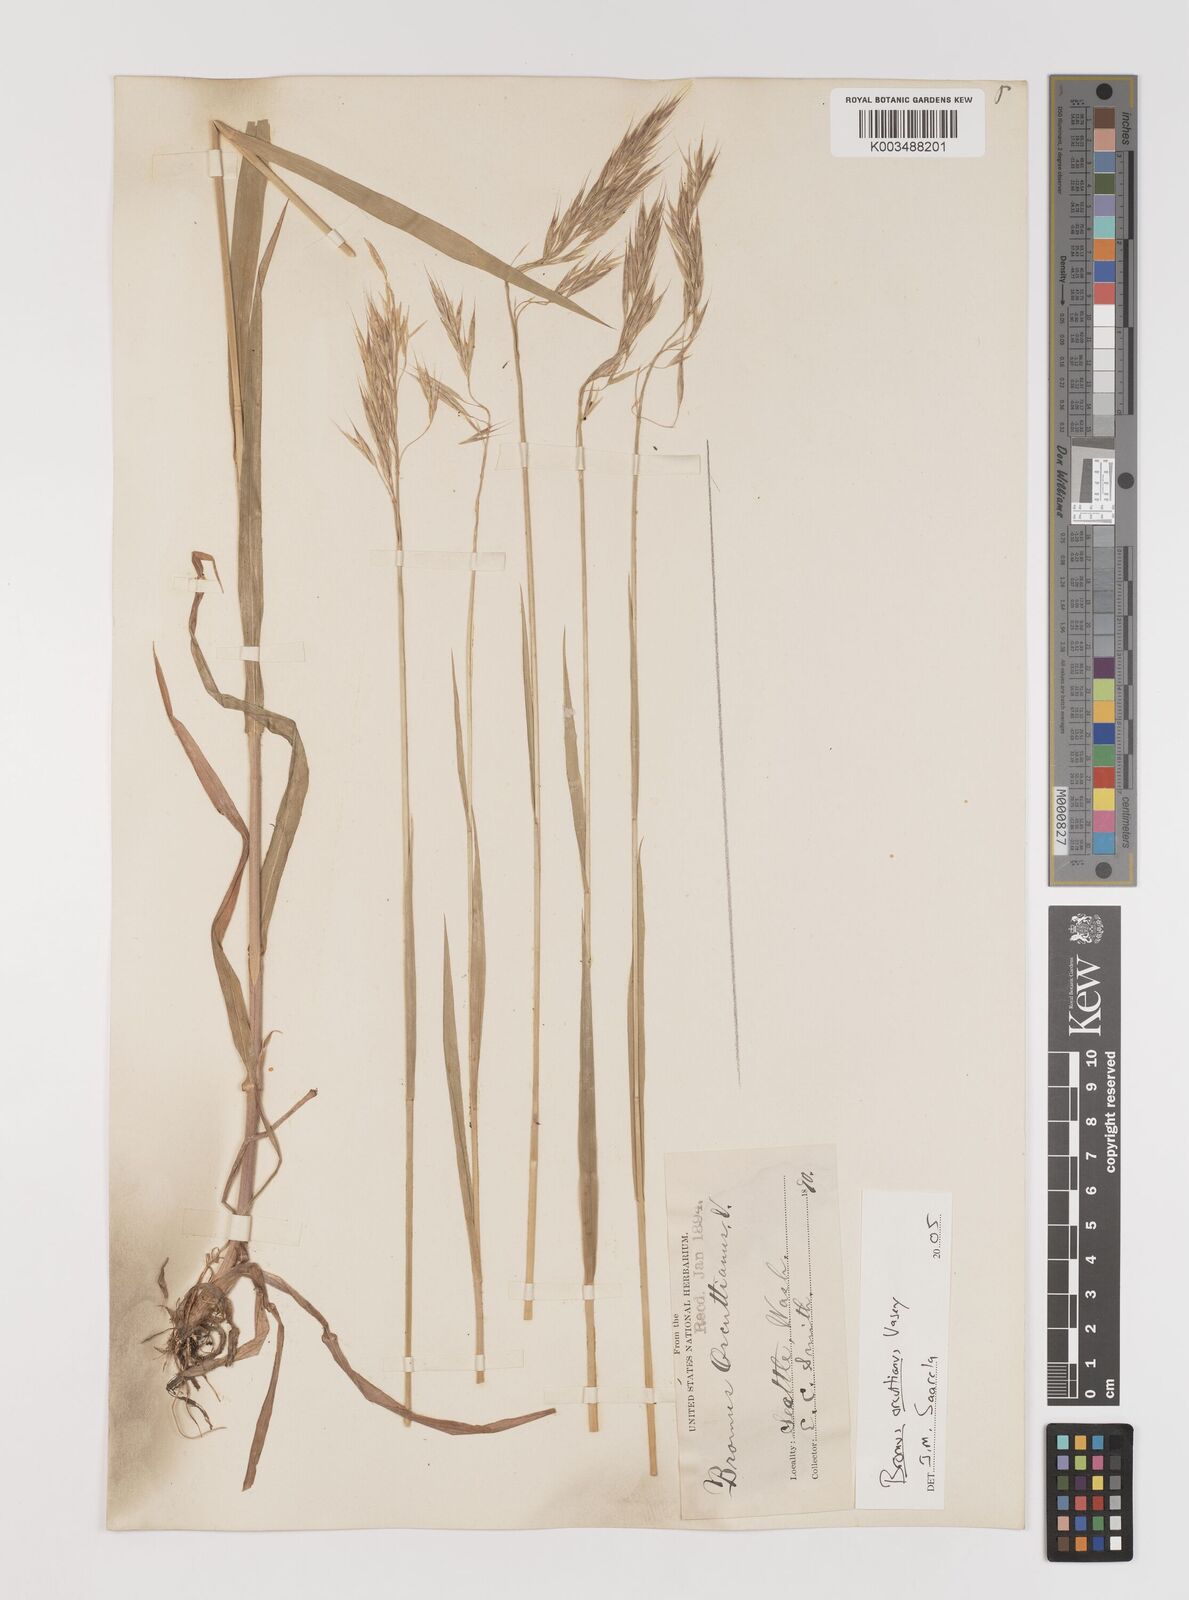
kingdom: Plantae
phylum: Tracheophyta
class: Liliopsida
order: Poales
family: Poaceae
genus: Bromus
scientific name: Bromus orcuttianus
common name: Orcutt's brome
